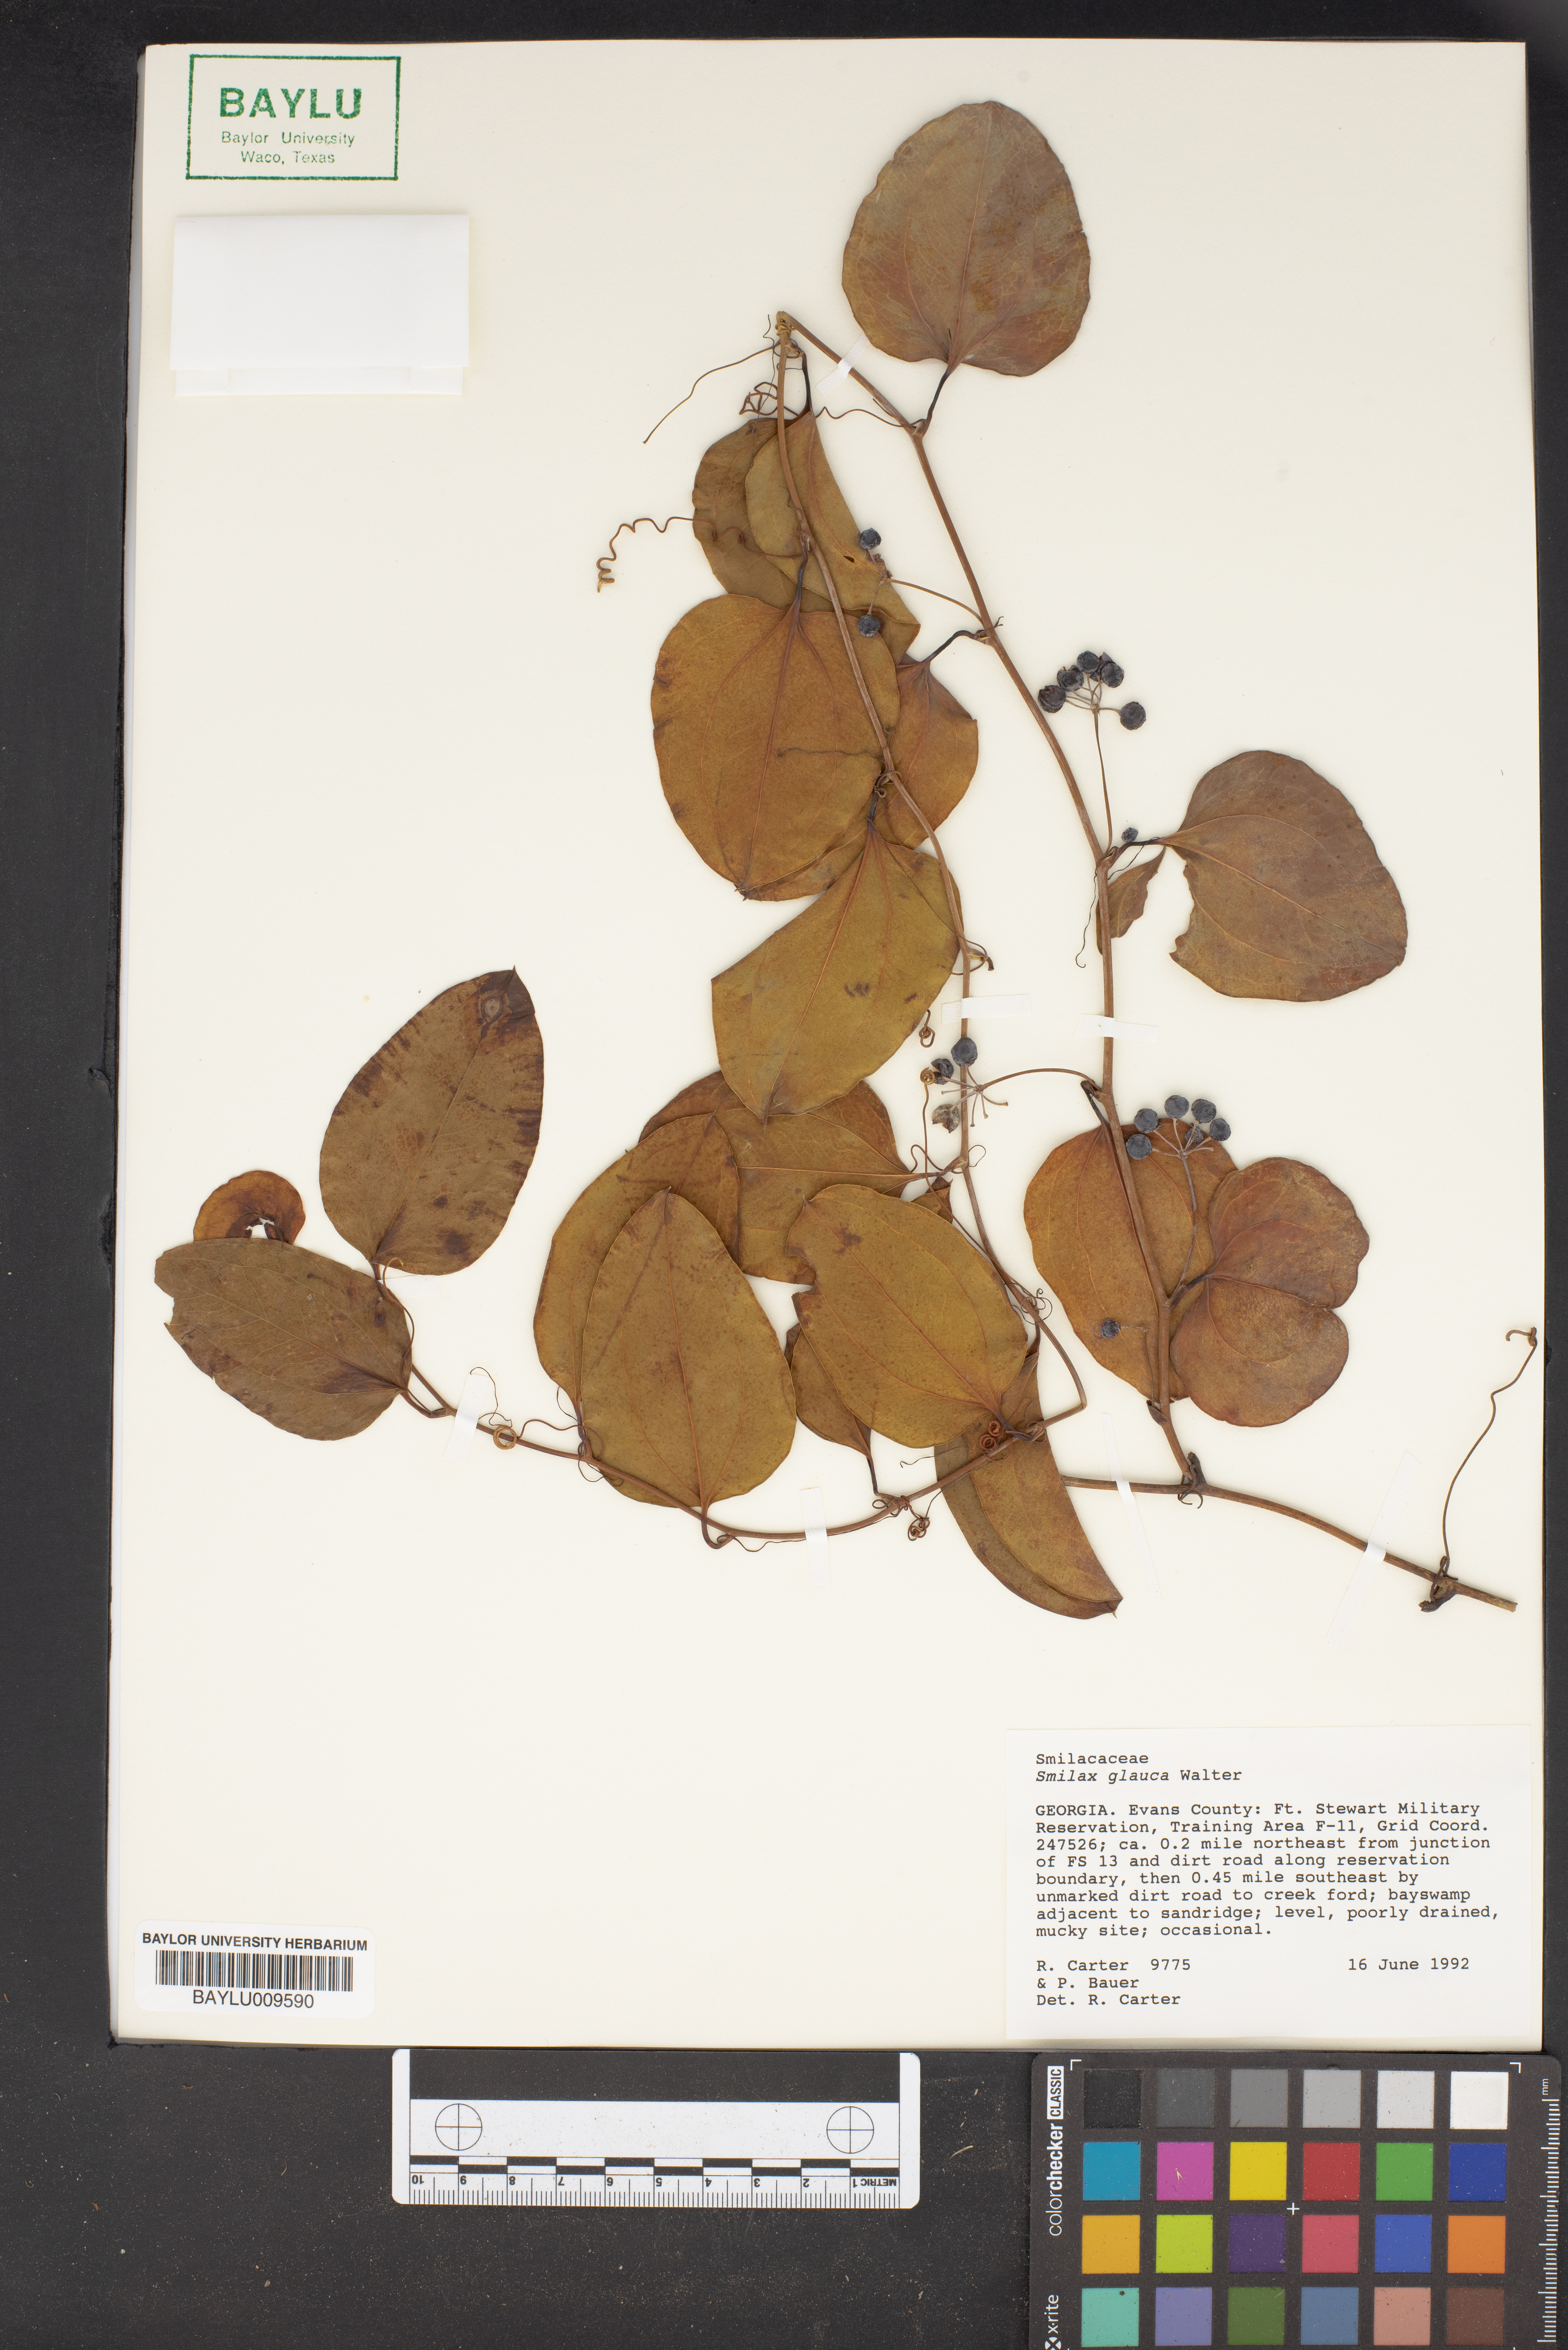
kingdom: Plantae
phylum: Tracheophyta
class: Liliopsida
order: Liliales
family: Smilacaceae
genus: Smilax
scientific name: Smilax glauca
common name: Cat greenbrier
